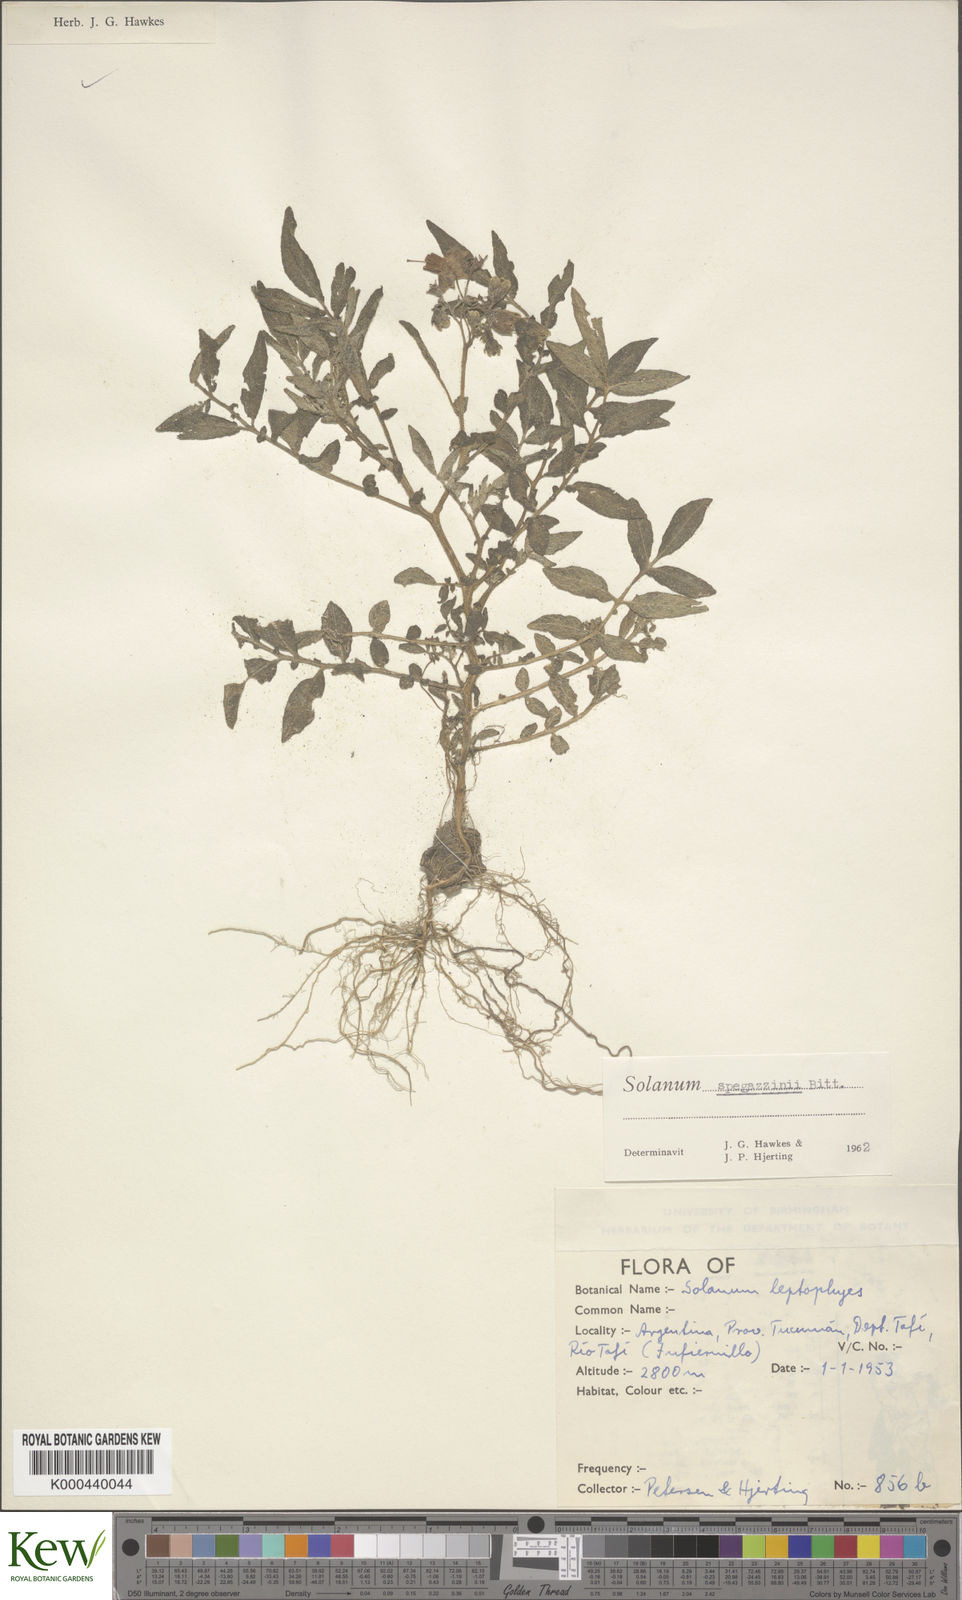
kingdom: Plantae
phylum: Tracheophyta
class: Magnoliopsida
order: Solanales
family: Solanaceae
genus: Solanum
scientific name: Solanum brevicaule
